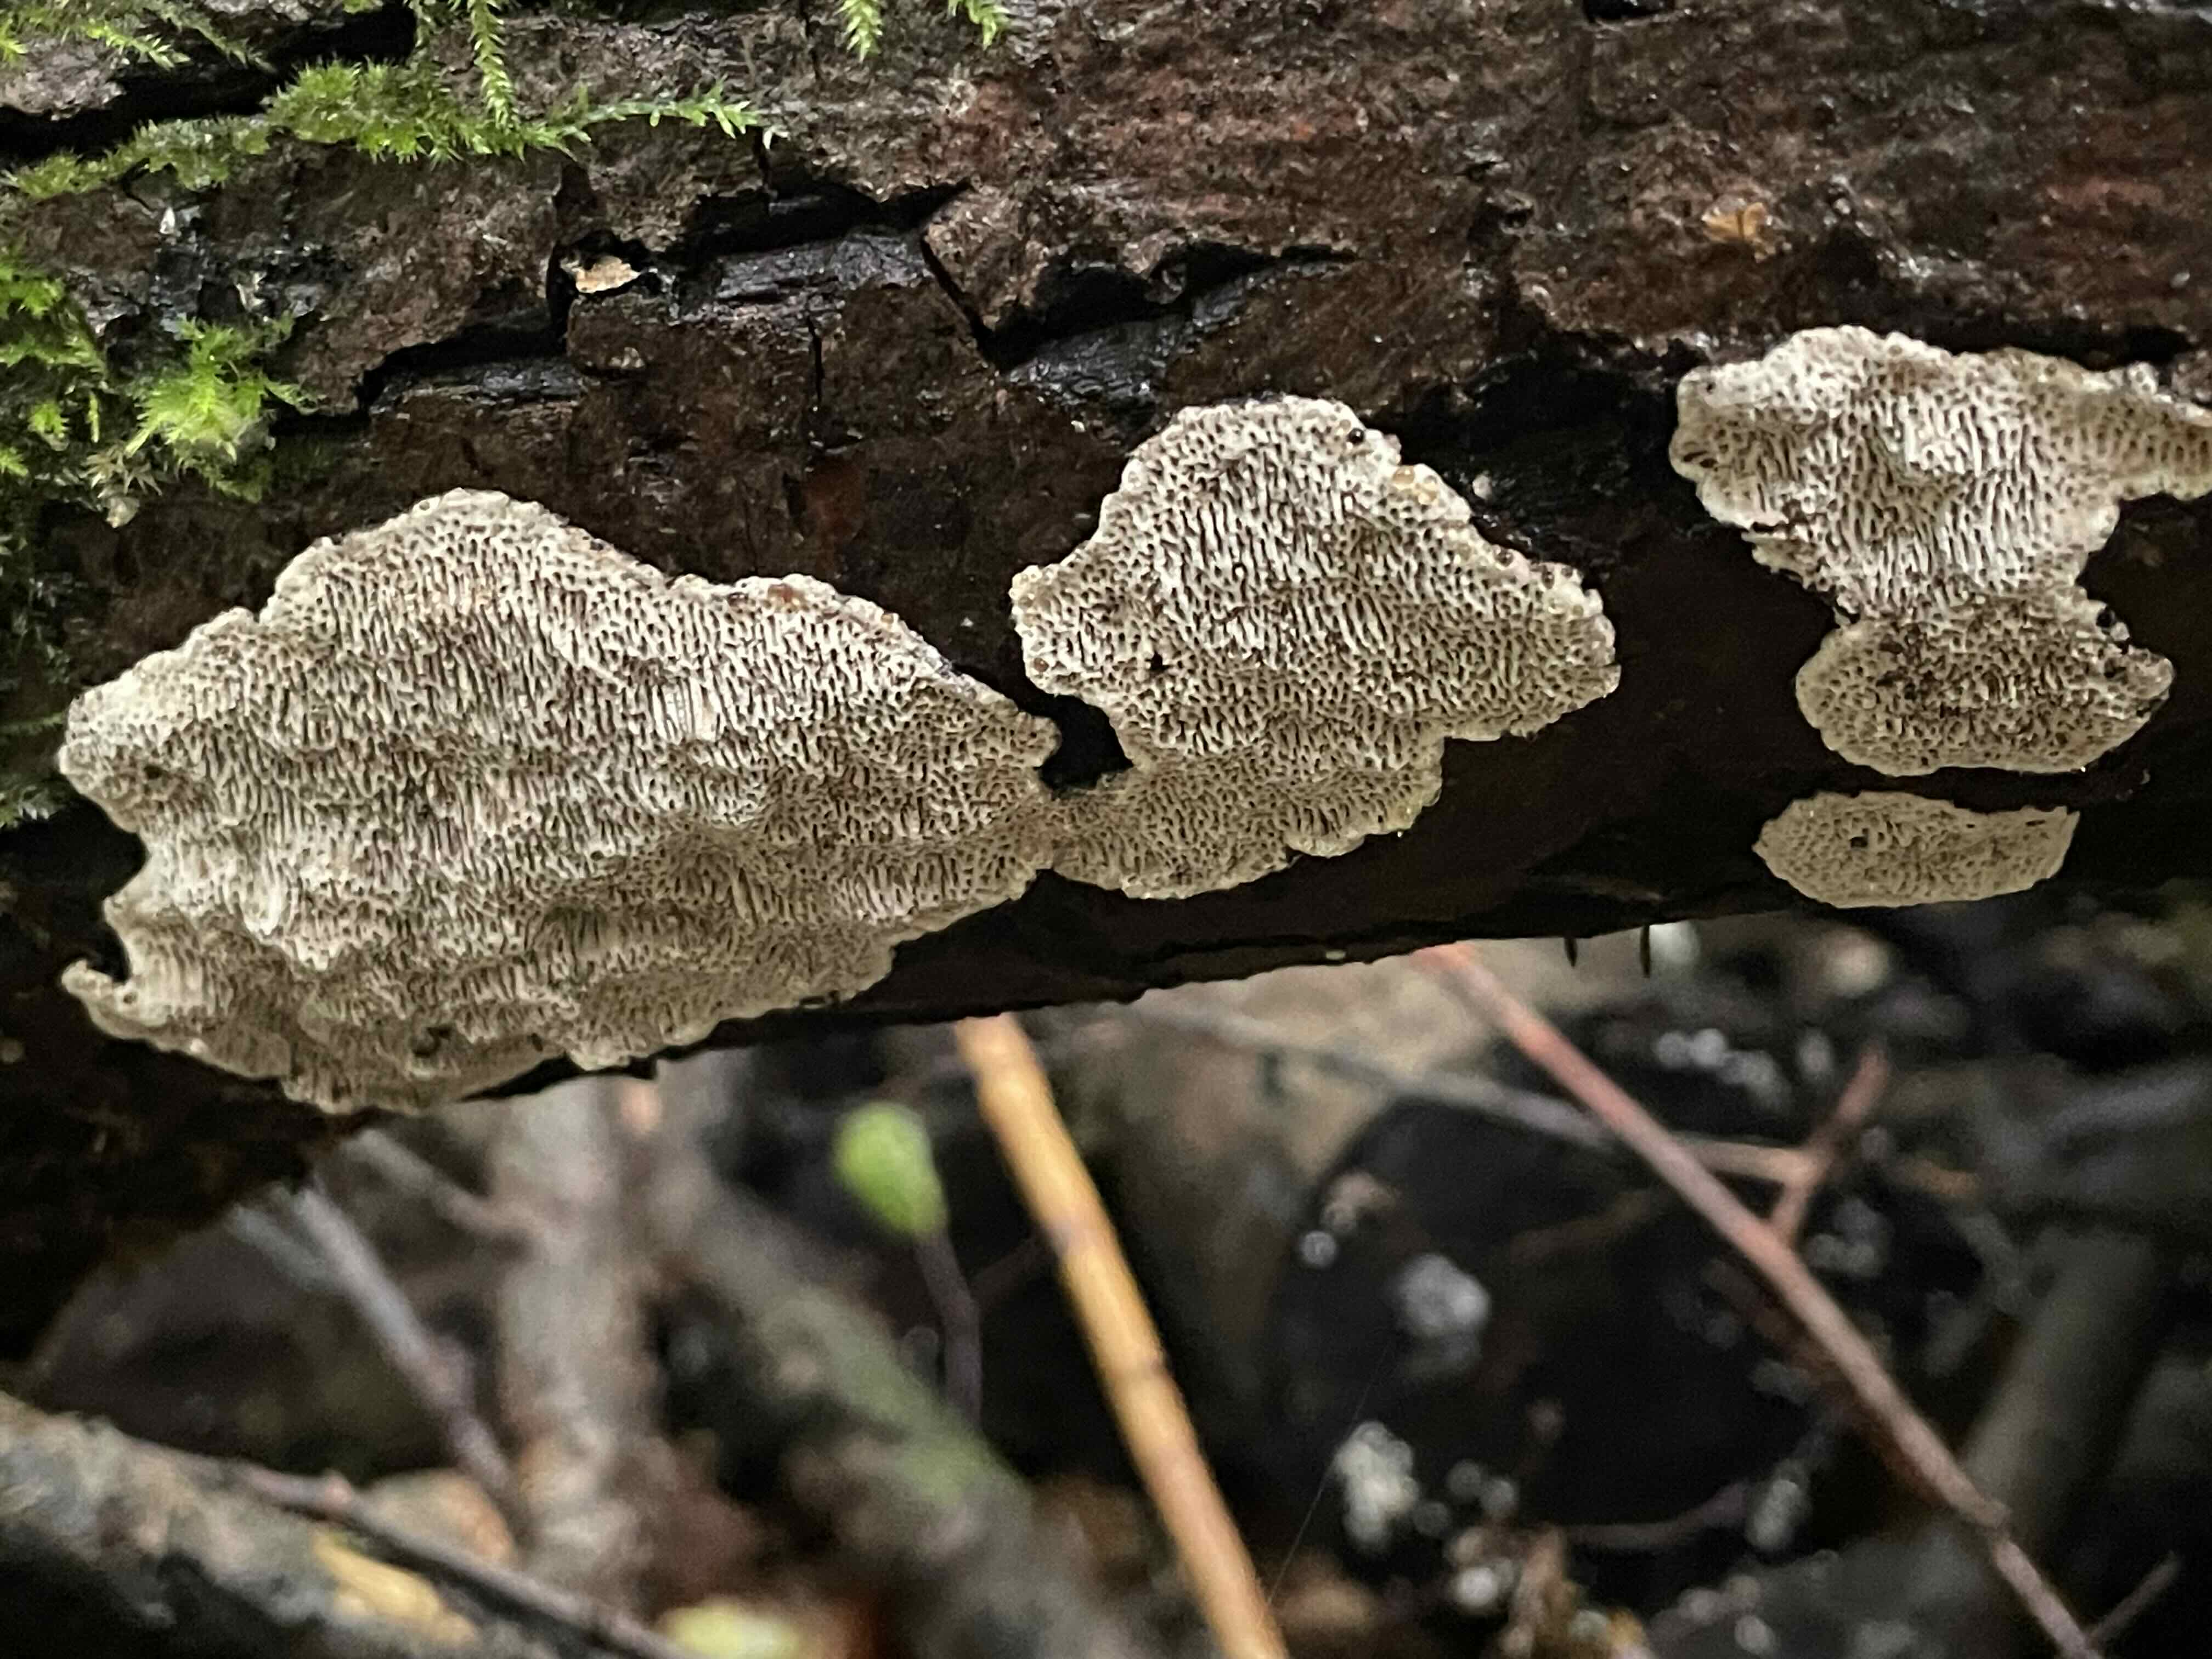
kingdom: Fungi
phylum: Basidiomycota
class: Agaricomycetes
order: Polyporales
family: Polyporaceae
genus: Podofomes
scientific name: Podofomes mollis
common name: blød begporesvamp
